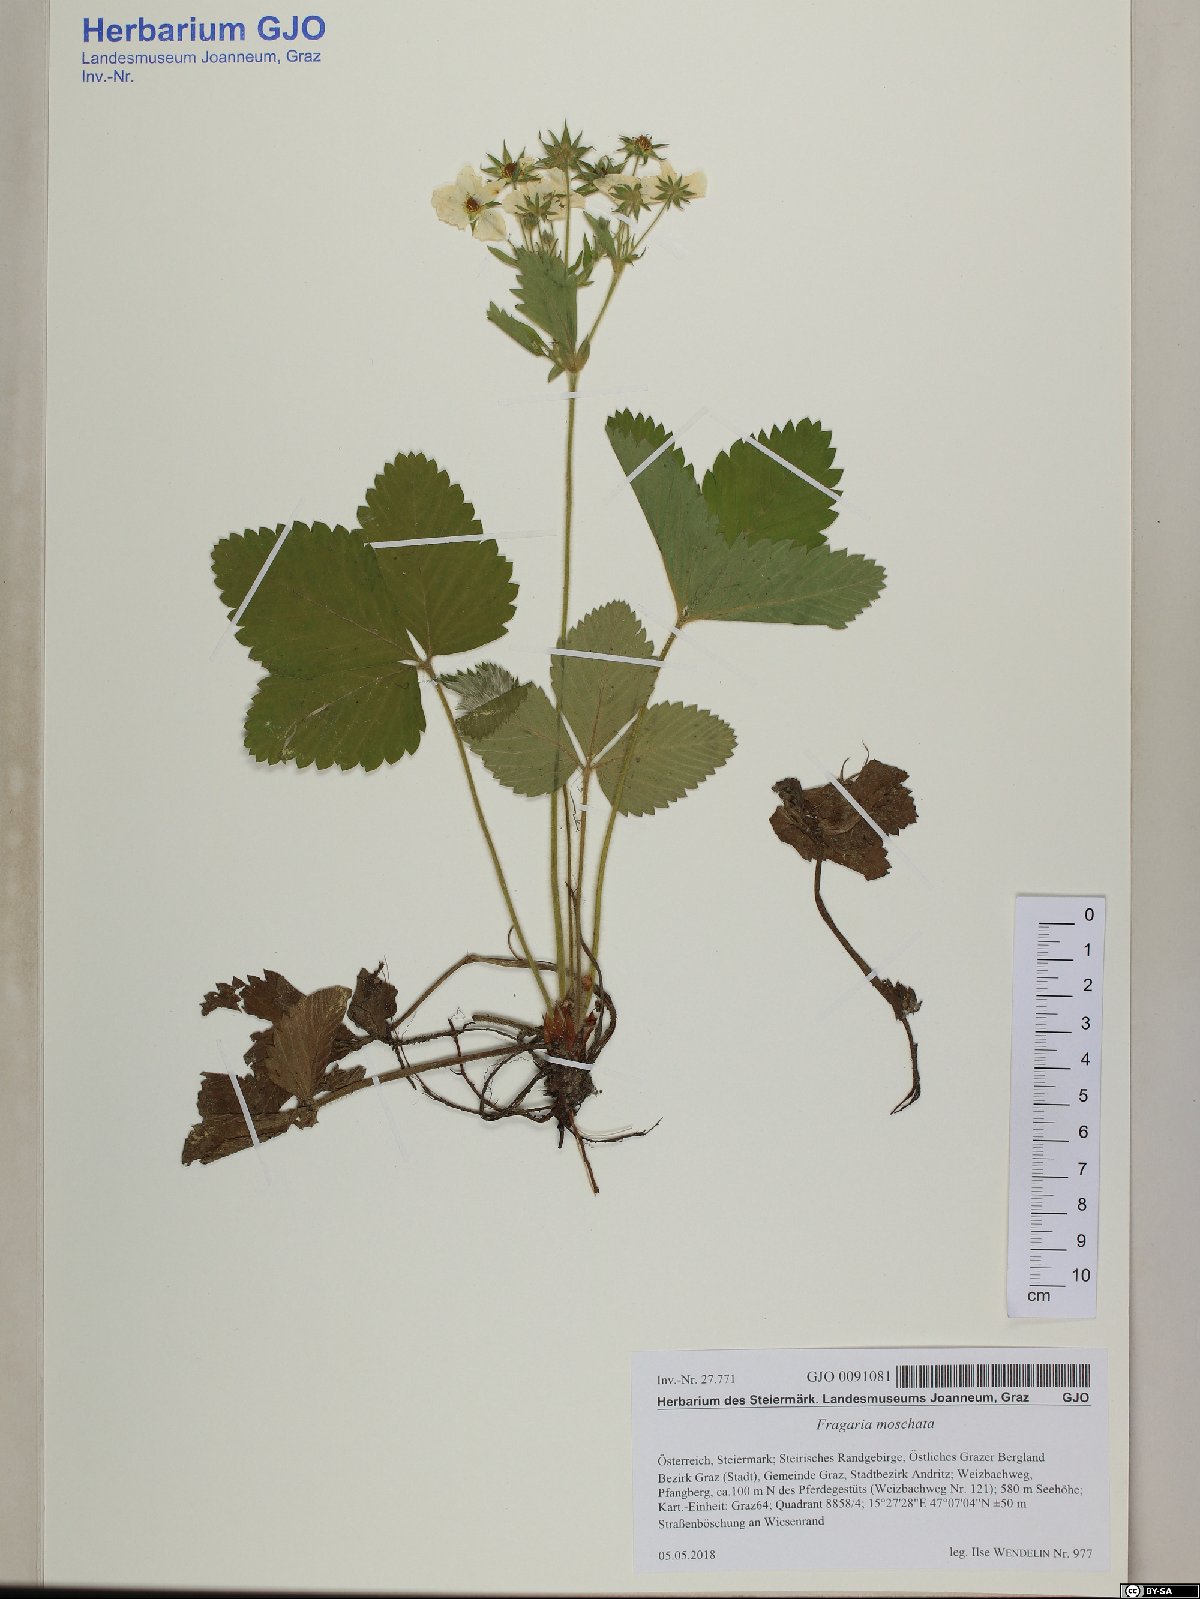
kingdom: Plantae
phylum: Tracheophyta
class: Magnoliopsida
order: Rosales
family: Rosaceae
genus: Fragaria
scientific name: Fragaria moschata
